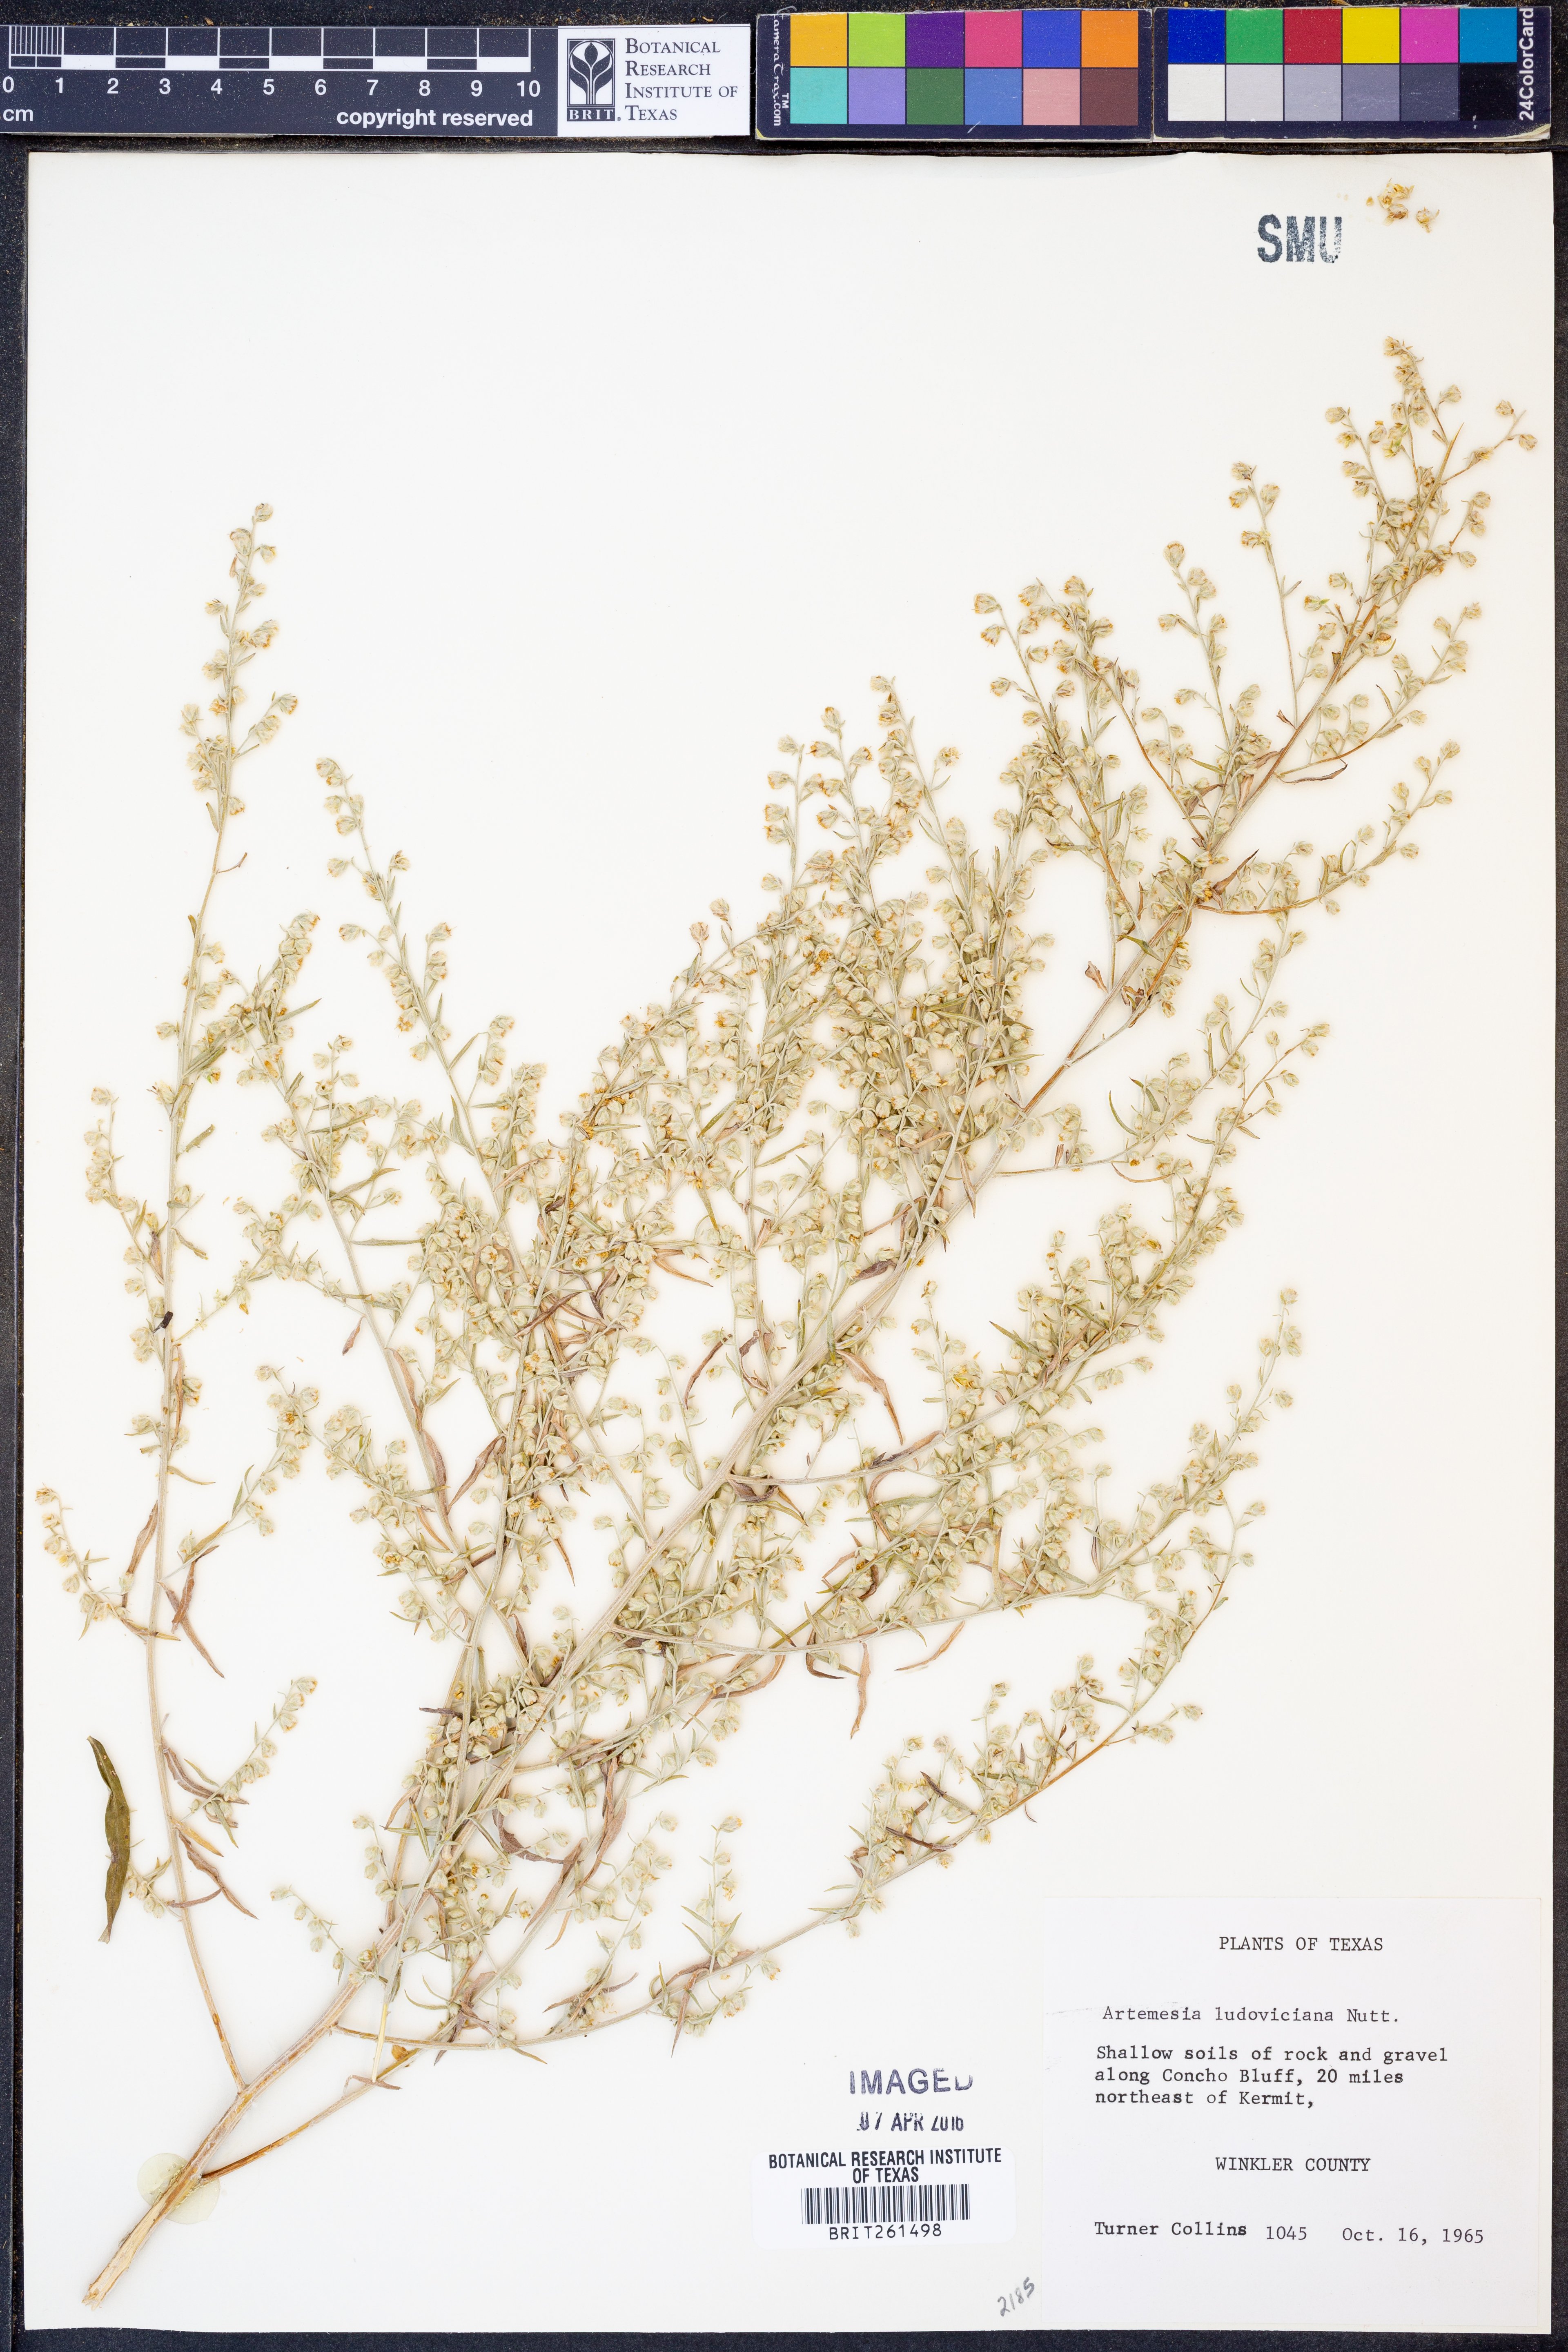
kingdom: Plantae
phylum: Tracheophyta
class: Magnoliopsida
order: Asterales
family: Asteraceae
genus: Artemisia
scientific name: Artemisia ludoviciana
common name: Western mugwort
